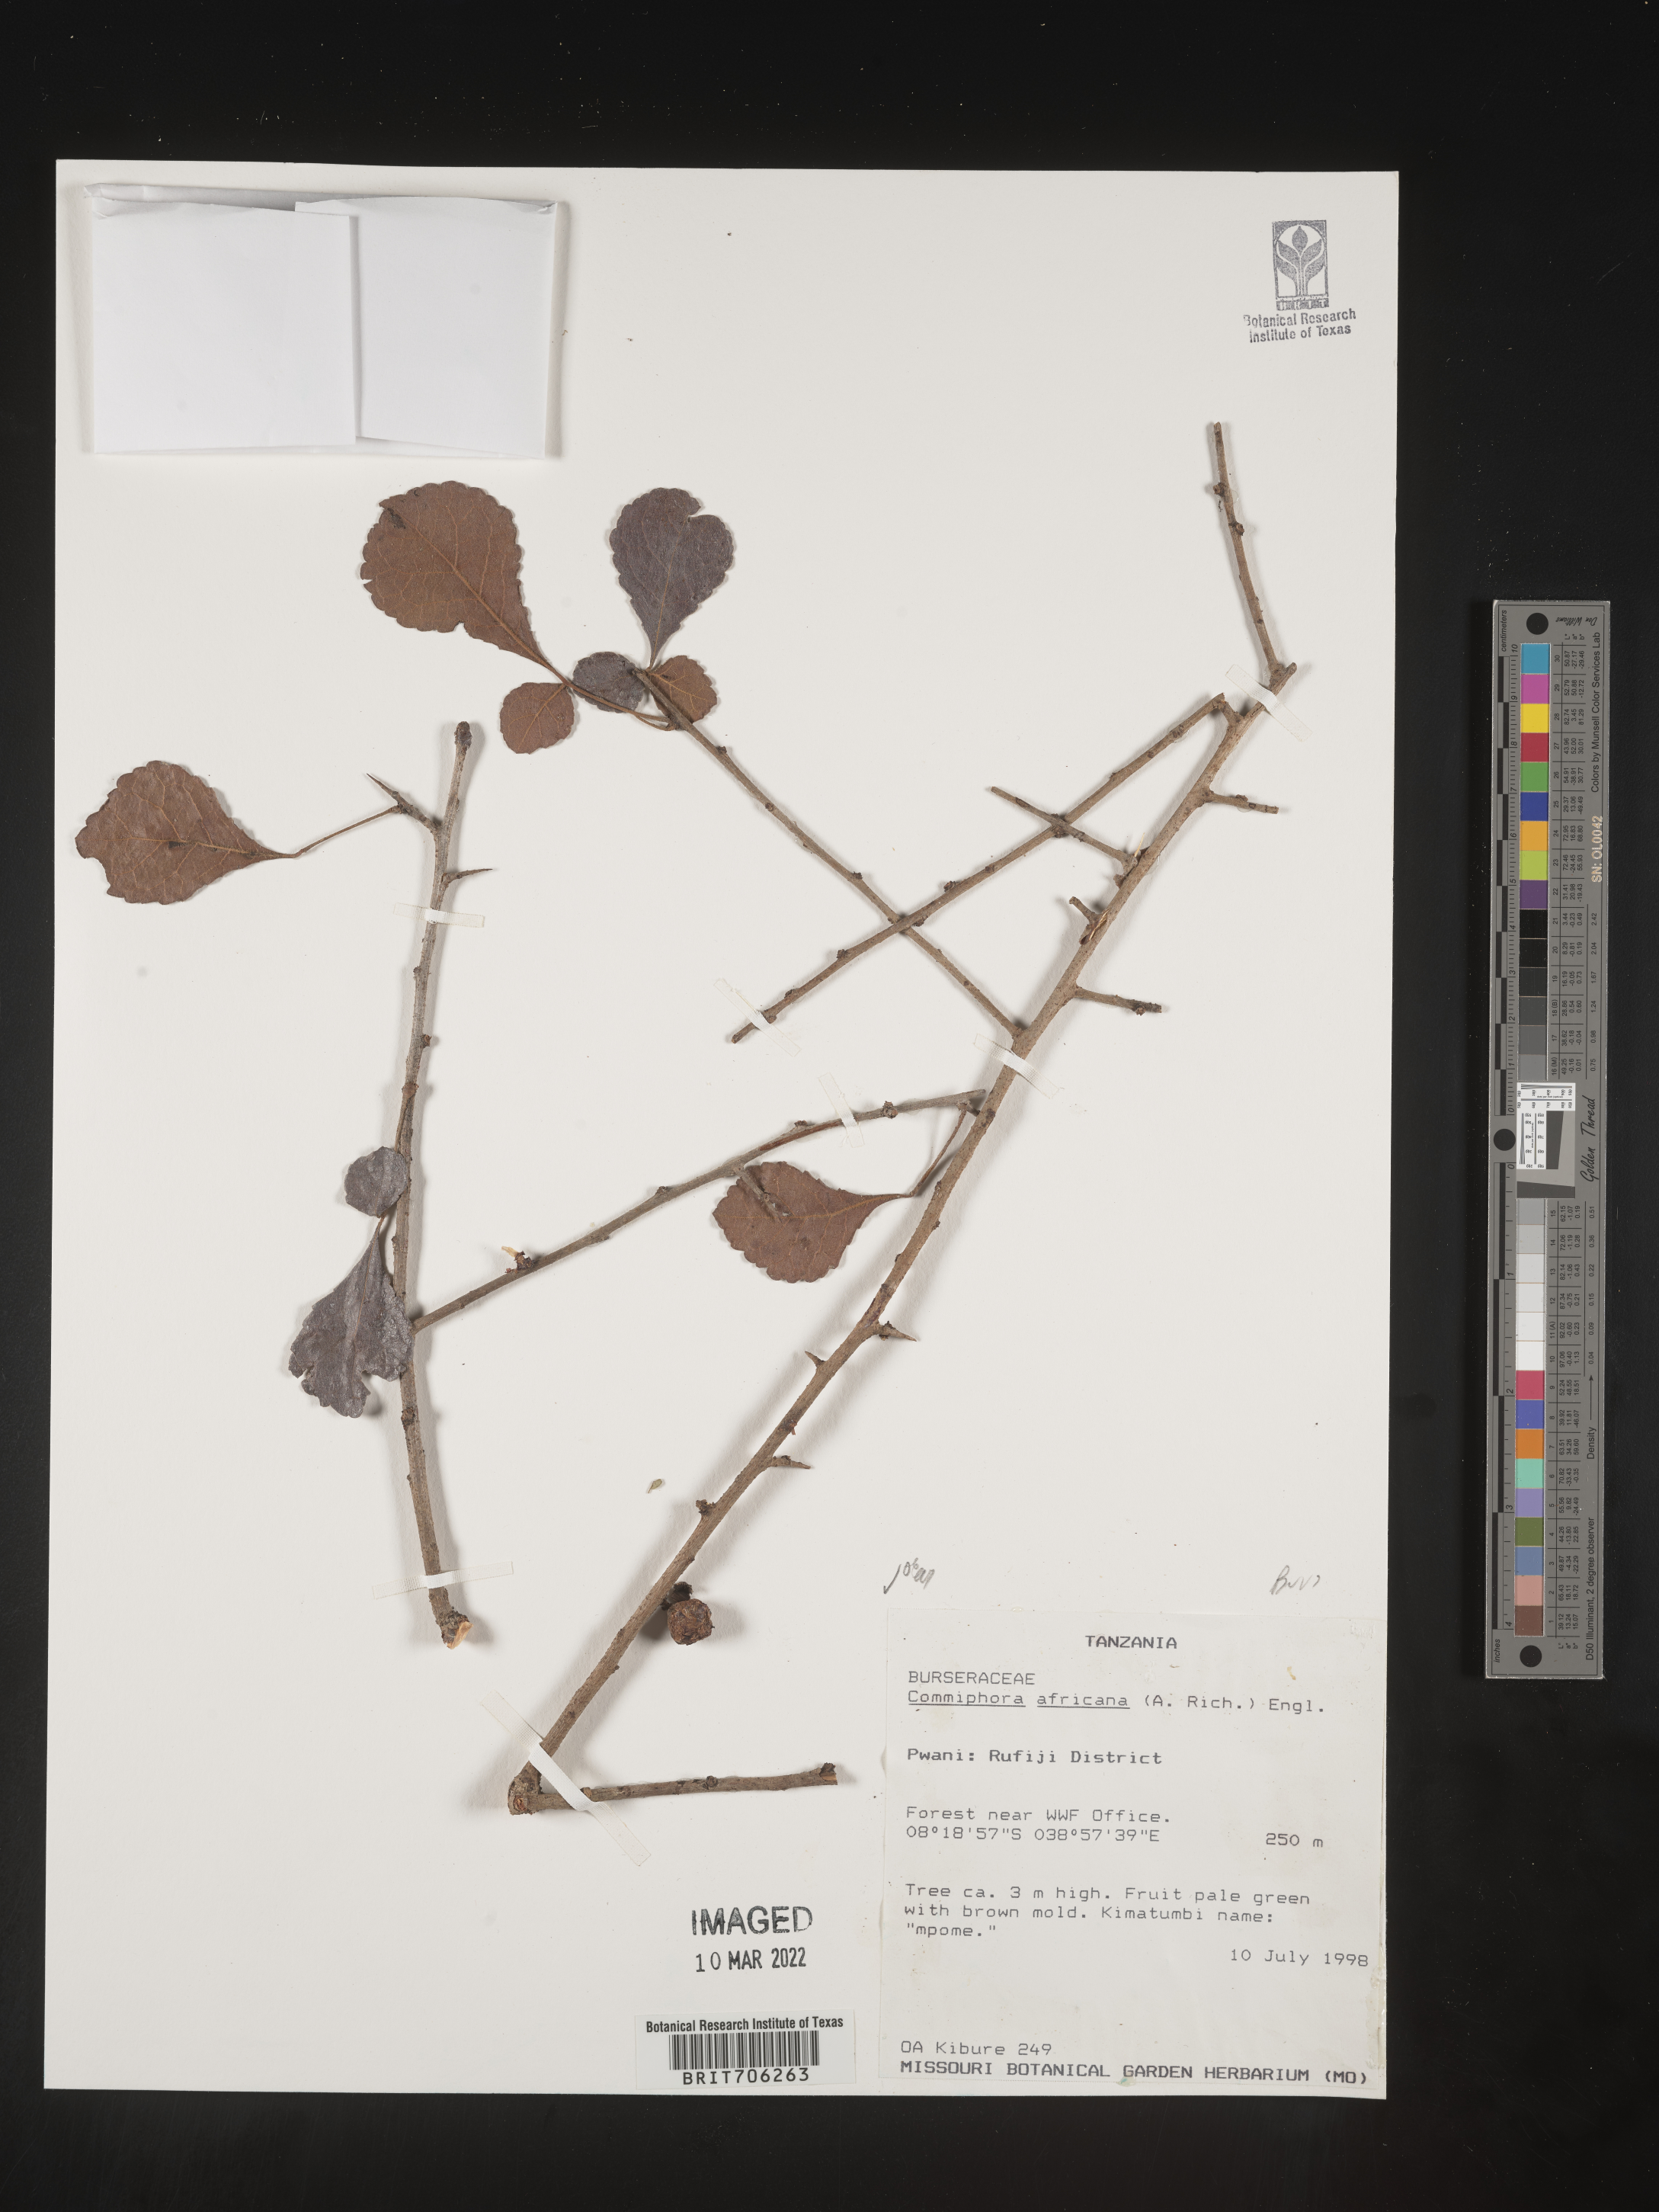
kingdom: Plantae
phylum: Tracheophyta
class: Magnoliopsida
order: Sapindales
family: Burseraceae
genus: Commiphora
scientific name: Commiphora
